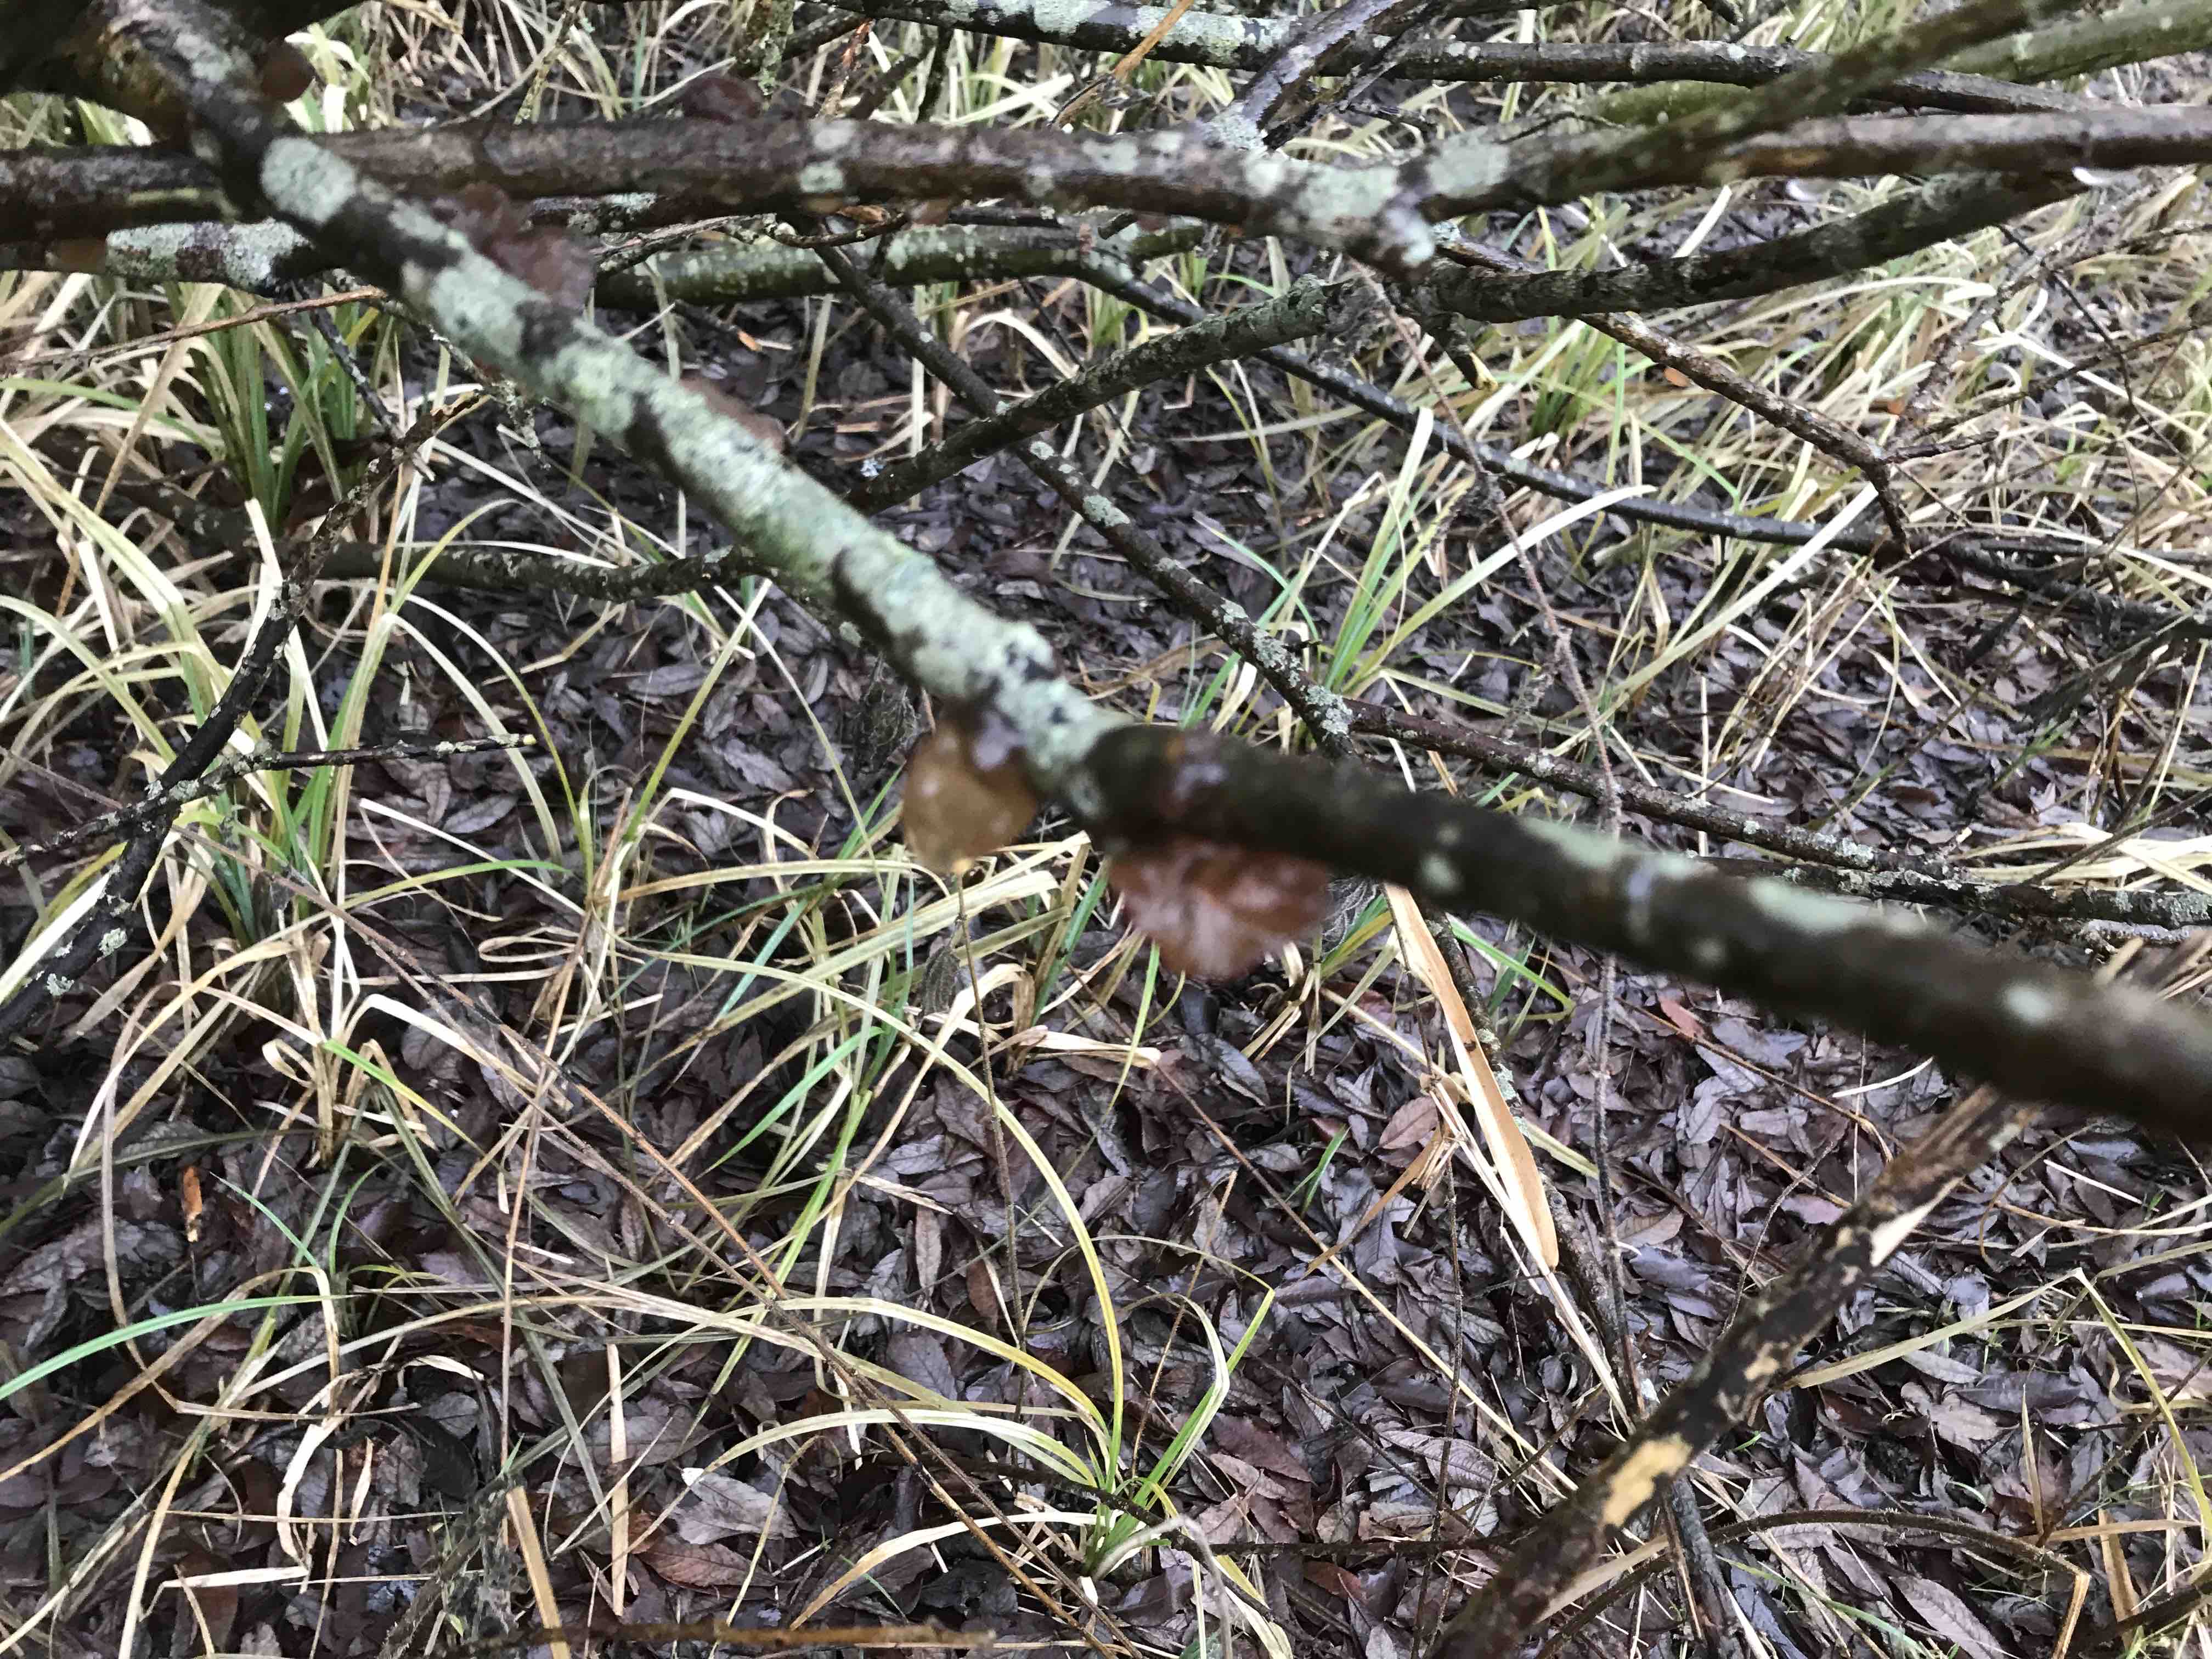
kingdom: Fungi
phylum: Basidiomycota
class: Agaricomycetes
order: Auriculariales
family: Auriculariaceae
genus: Exidia
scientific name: Exidia recisa
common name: pile-bævretop
